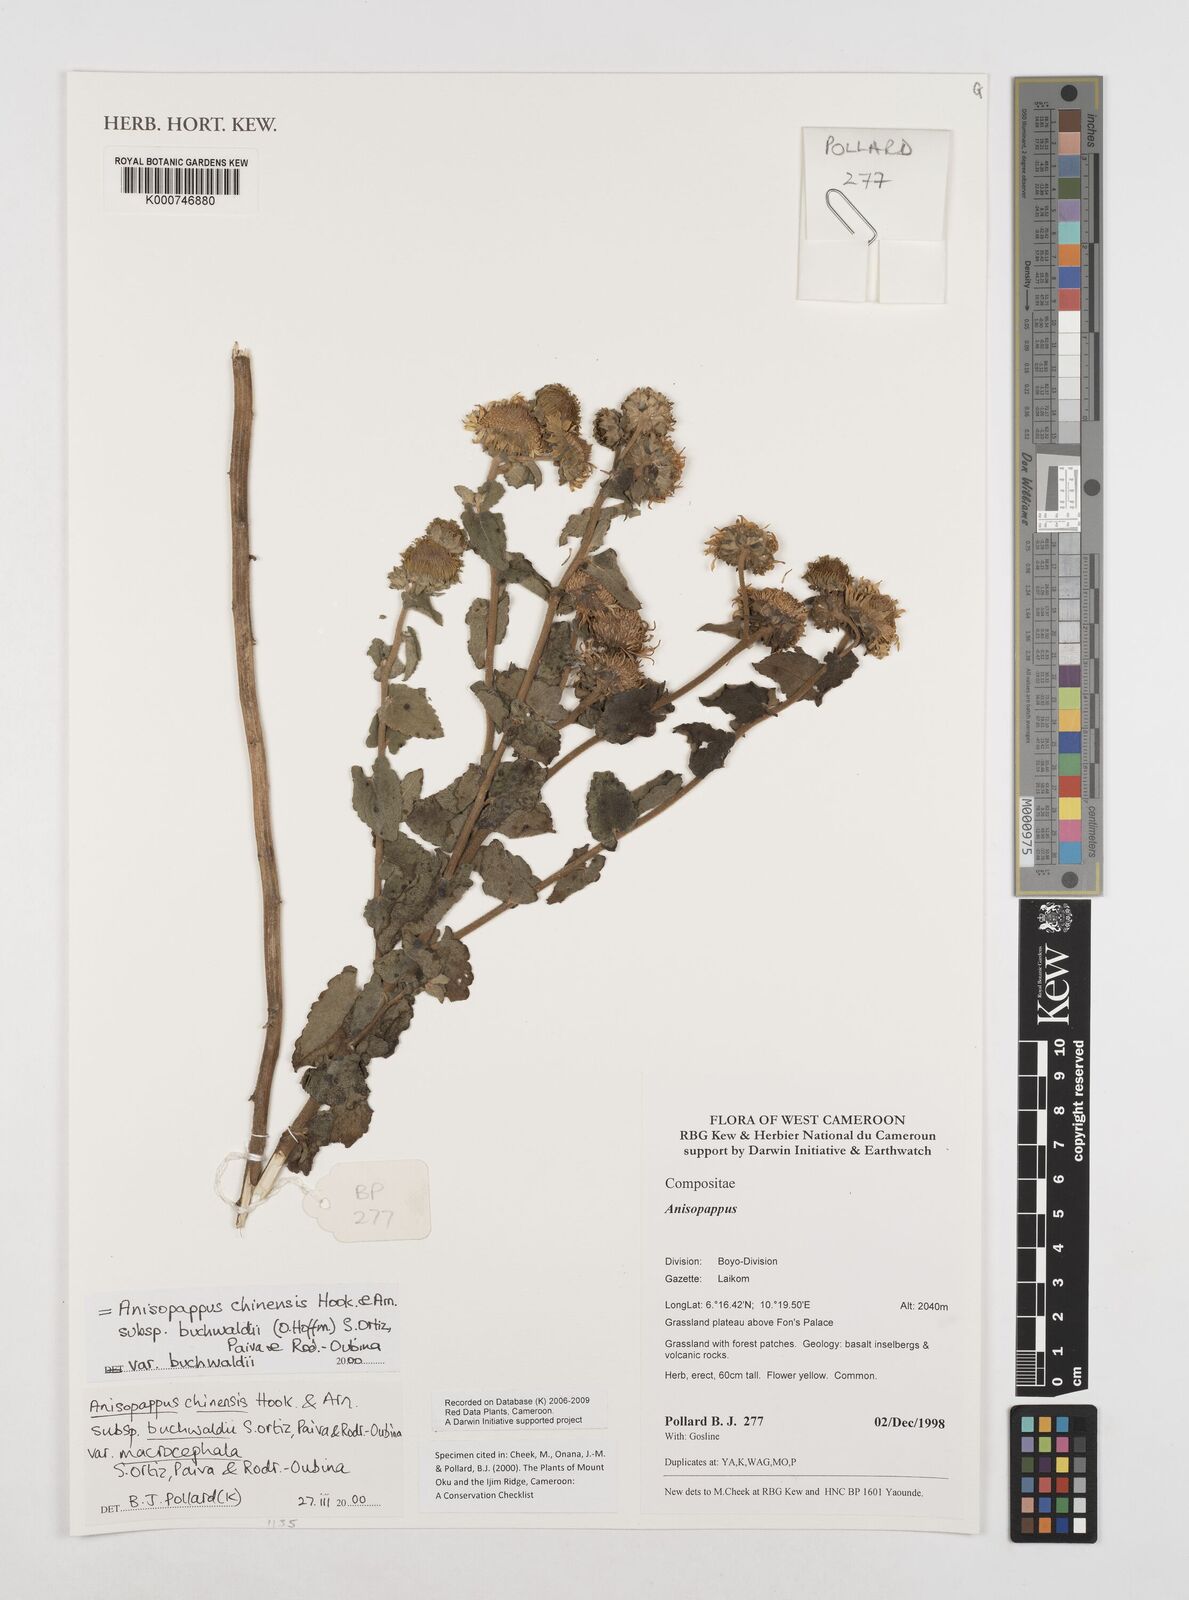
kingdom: Plantae
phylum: Tracheophyta
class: Magnoliopsida
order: Asterales
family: Asteraceae
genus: Anisopappus
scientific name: Anisopappus chinensis
